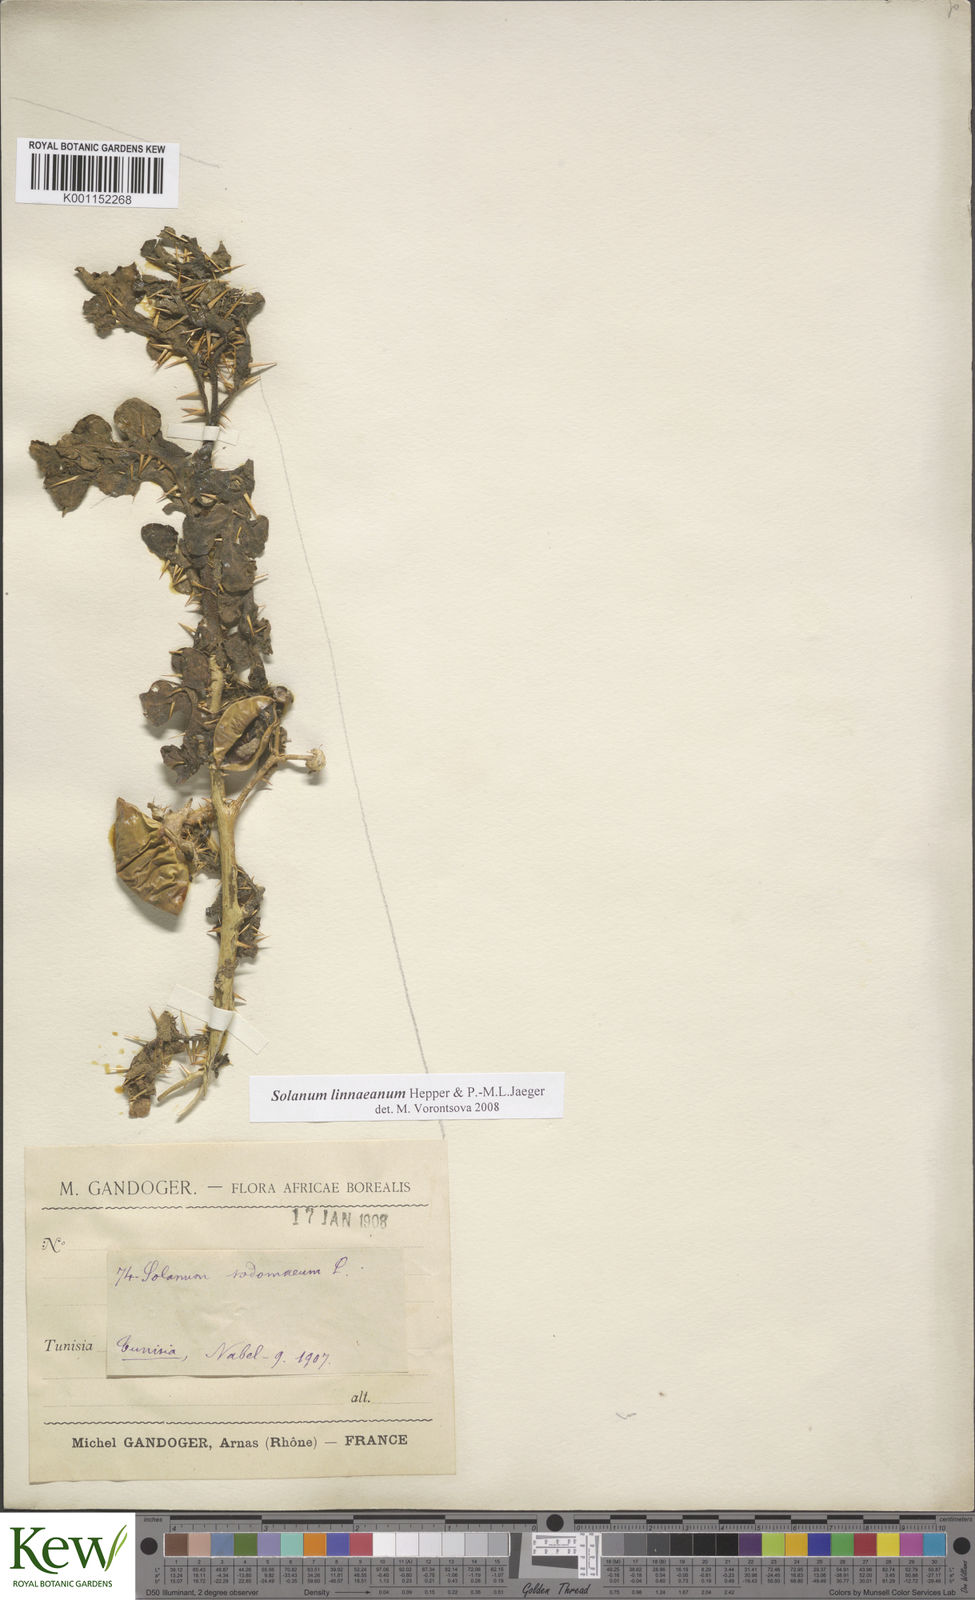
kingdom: Plantae
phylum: Tracheophyta
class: Magnoliopsida
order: Solanales
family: Solanaceae
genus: Solanum
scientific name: Solanum linnaeanum
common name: Nightshade
